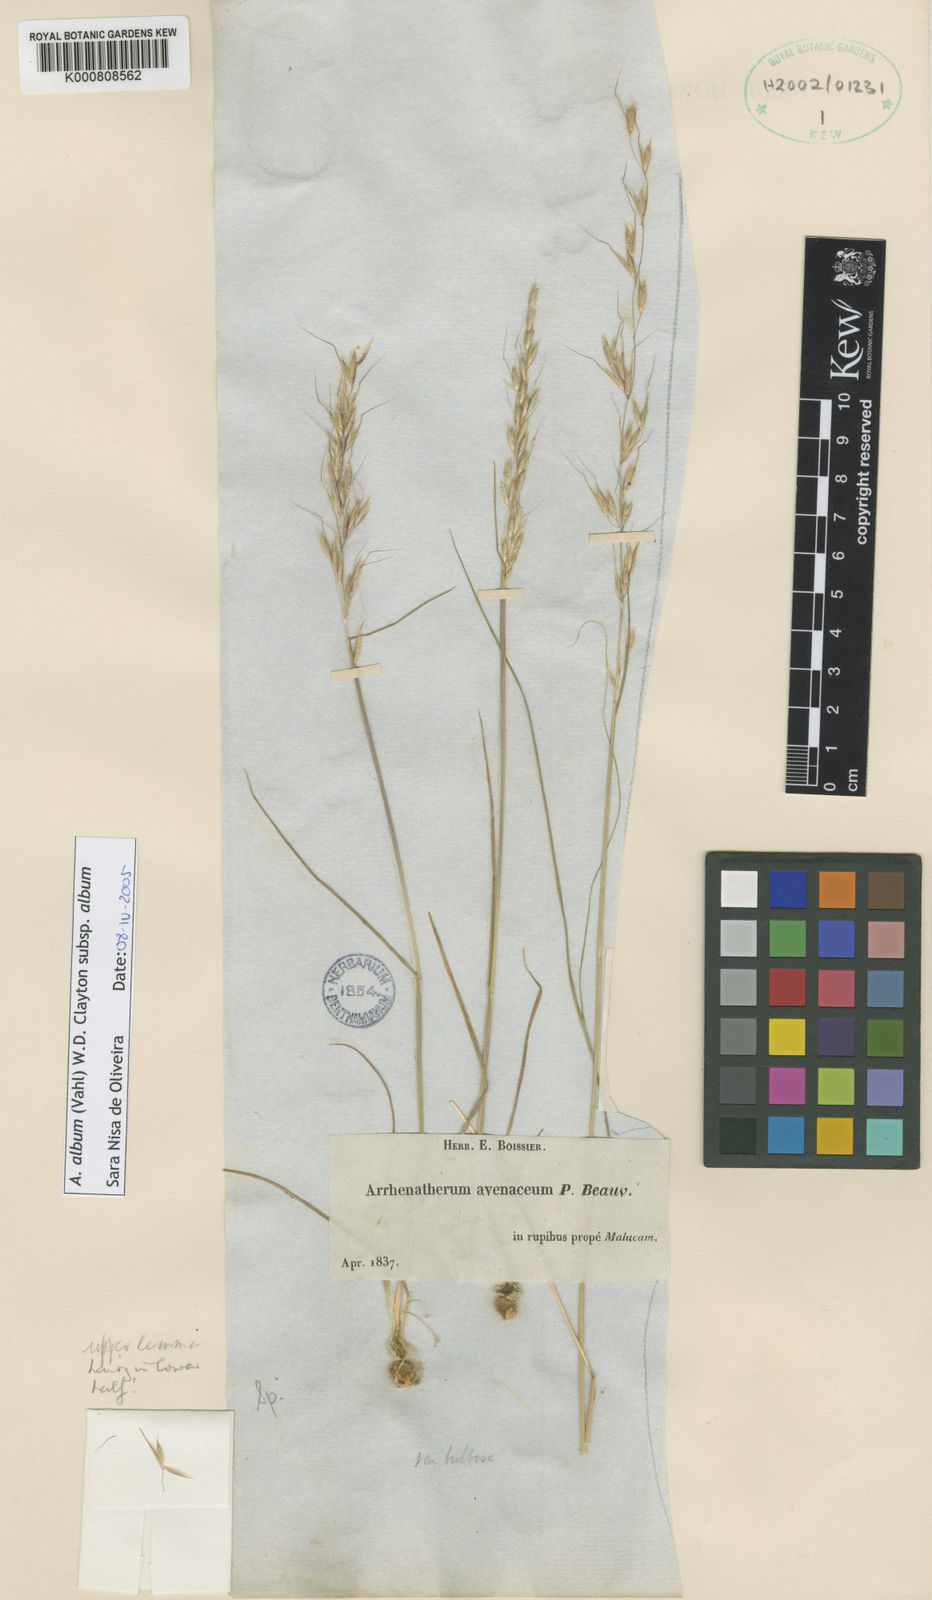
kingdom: Plantae
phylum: Tracheophyta
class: Liliopsida
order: Poales
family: Poaceae
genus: Arrhenatherum
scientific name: Arrhenatherum album
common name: Tall oat grass
